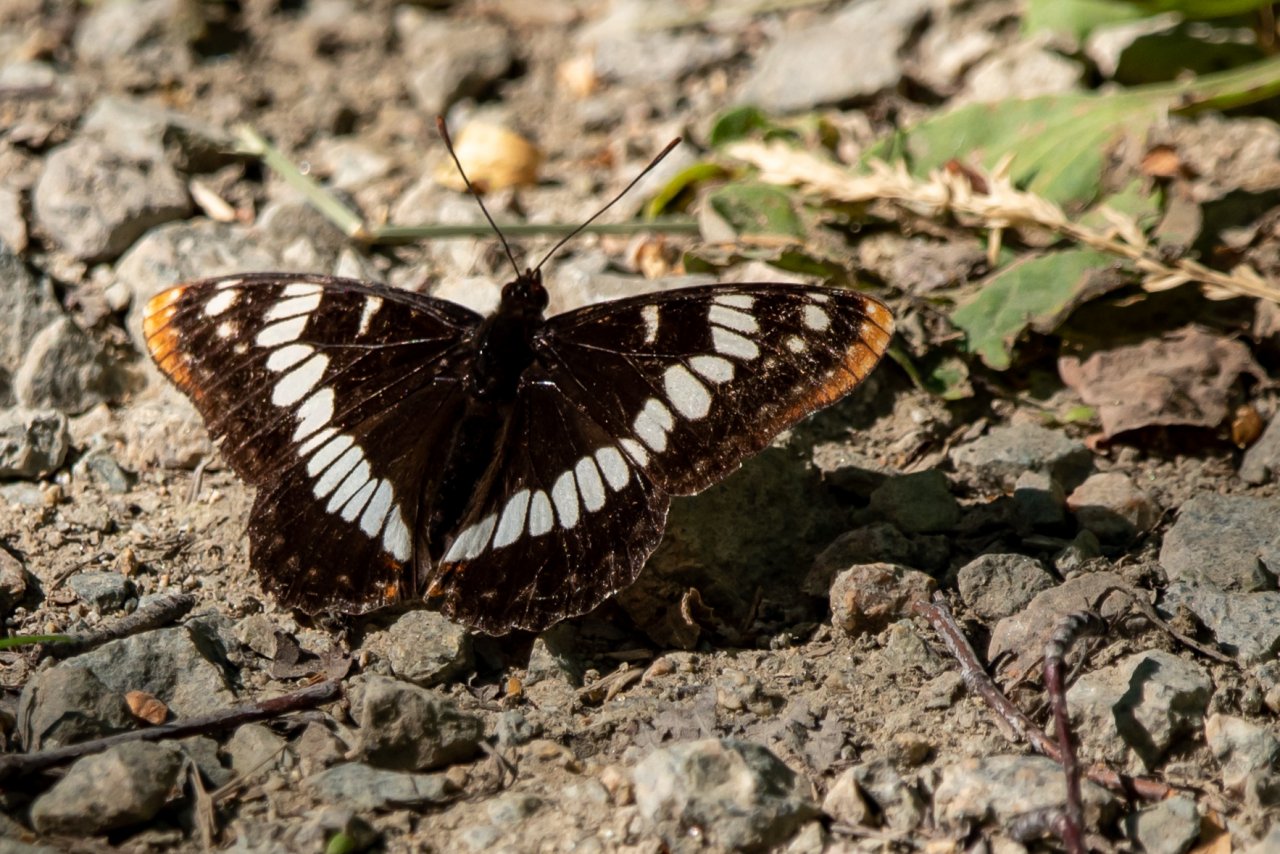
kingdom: Animalia
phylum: Arthropoda
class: Insecta
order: Lepidoptera
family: Nymphalidae
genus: Limenitis
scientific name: Limenitis lorquini
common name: Lorquin's Admiral
